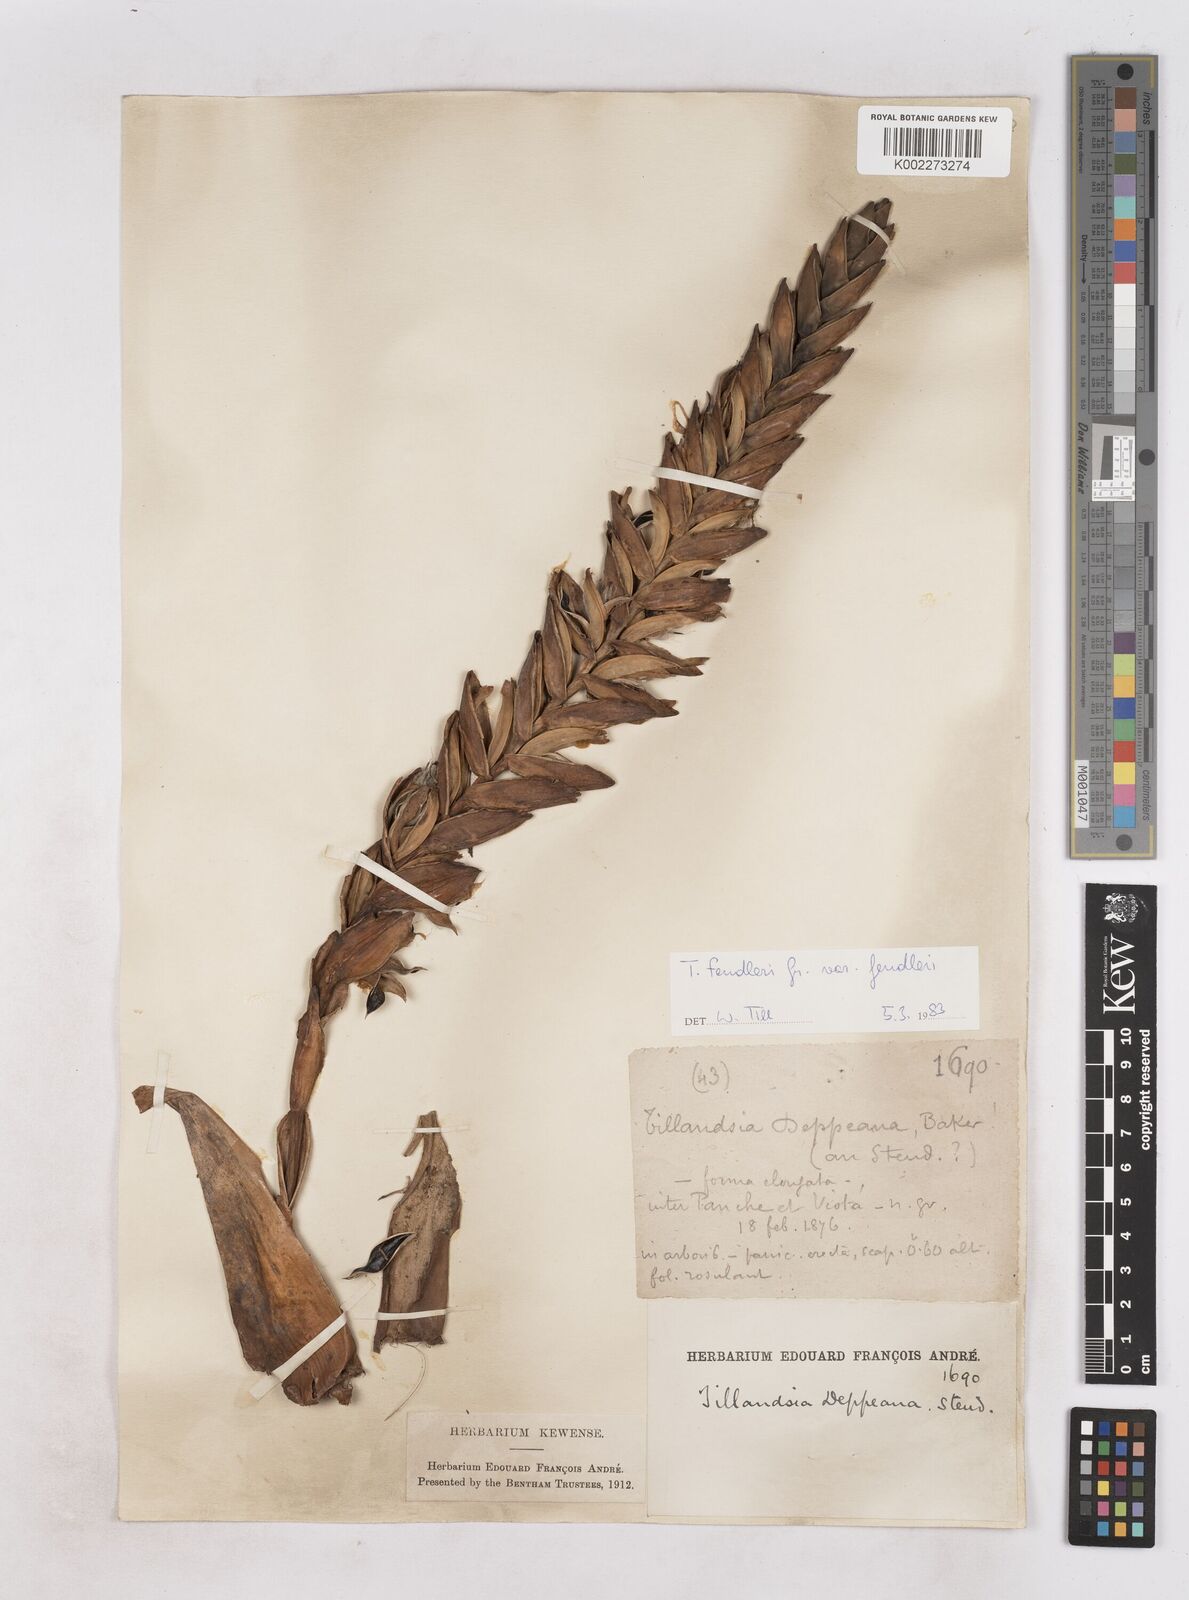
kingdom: Plantae
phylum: Tracheophyta
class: Liliopsida
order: Poales
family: Bromeliaceae
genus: Tillandsia
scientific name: Tillandsia fendleri
